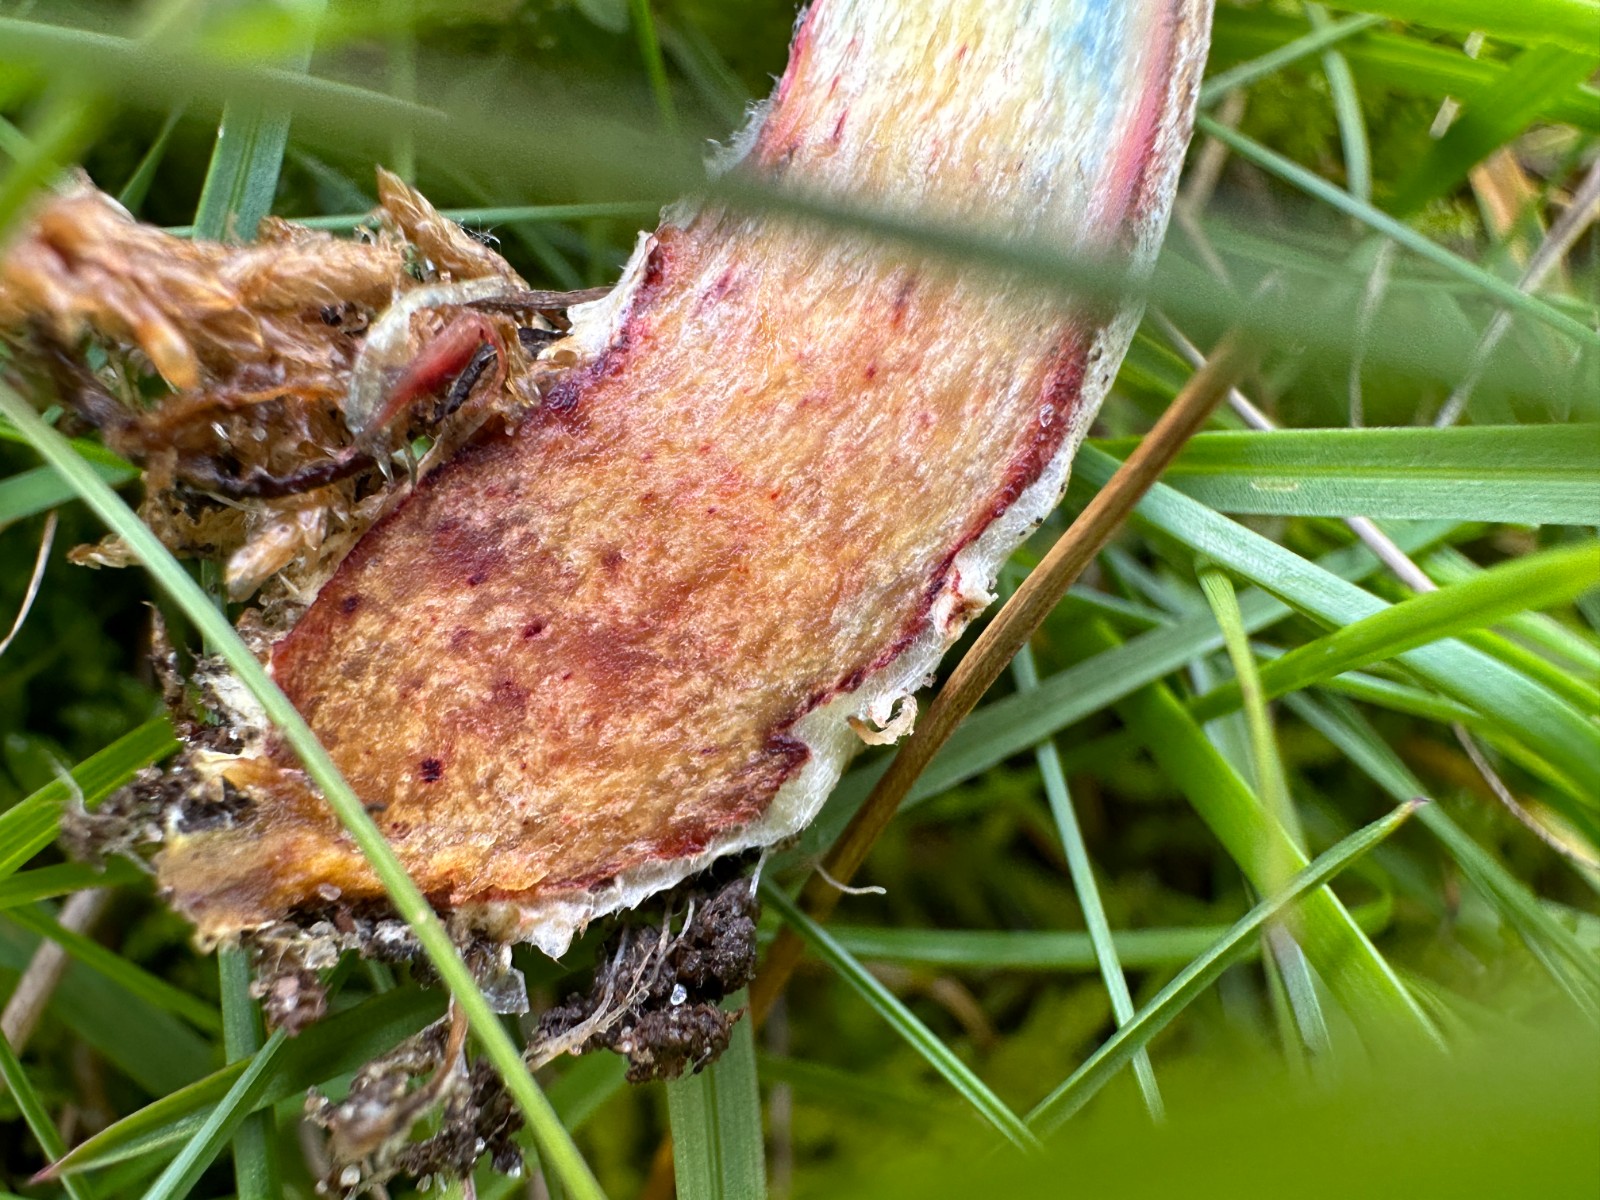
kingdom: Fungi
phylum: Basidiomycota
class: Agaricomycetes
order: Boletales
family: Boletaceae
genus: Xerocomellus
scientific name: Xerocomellus cisalpinus
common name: finsprukken rørhat
